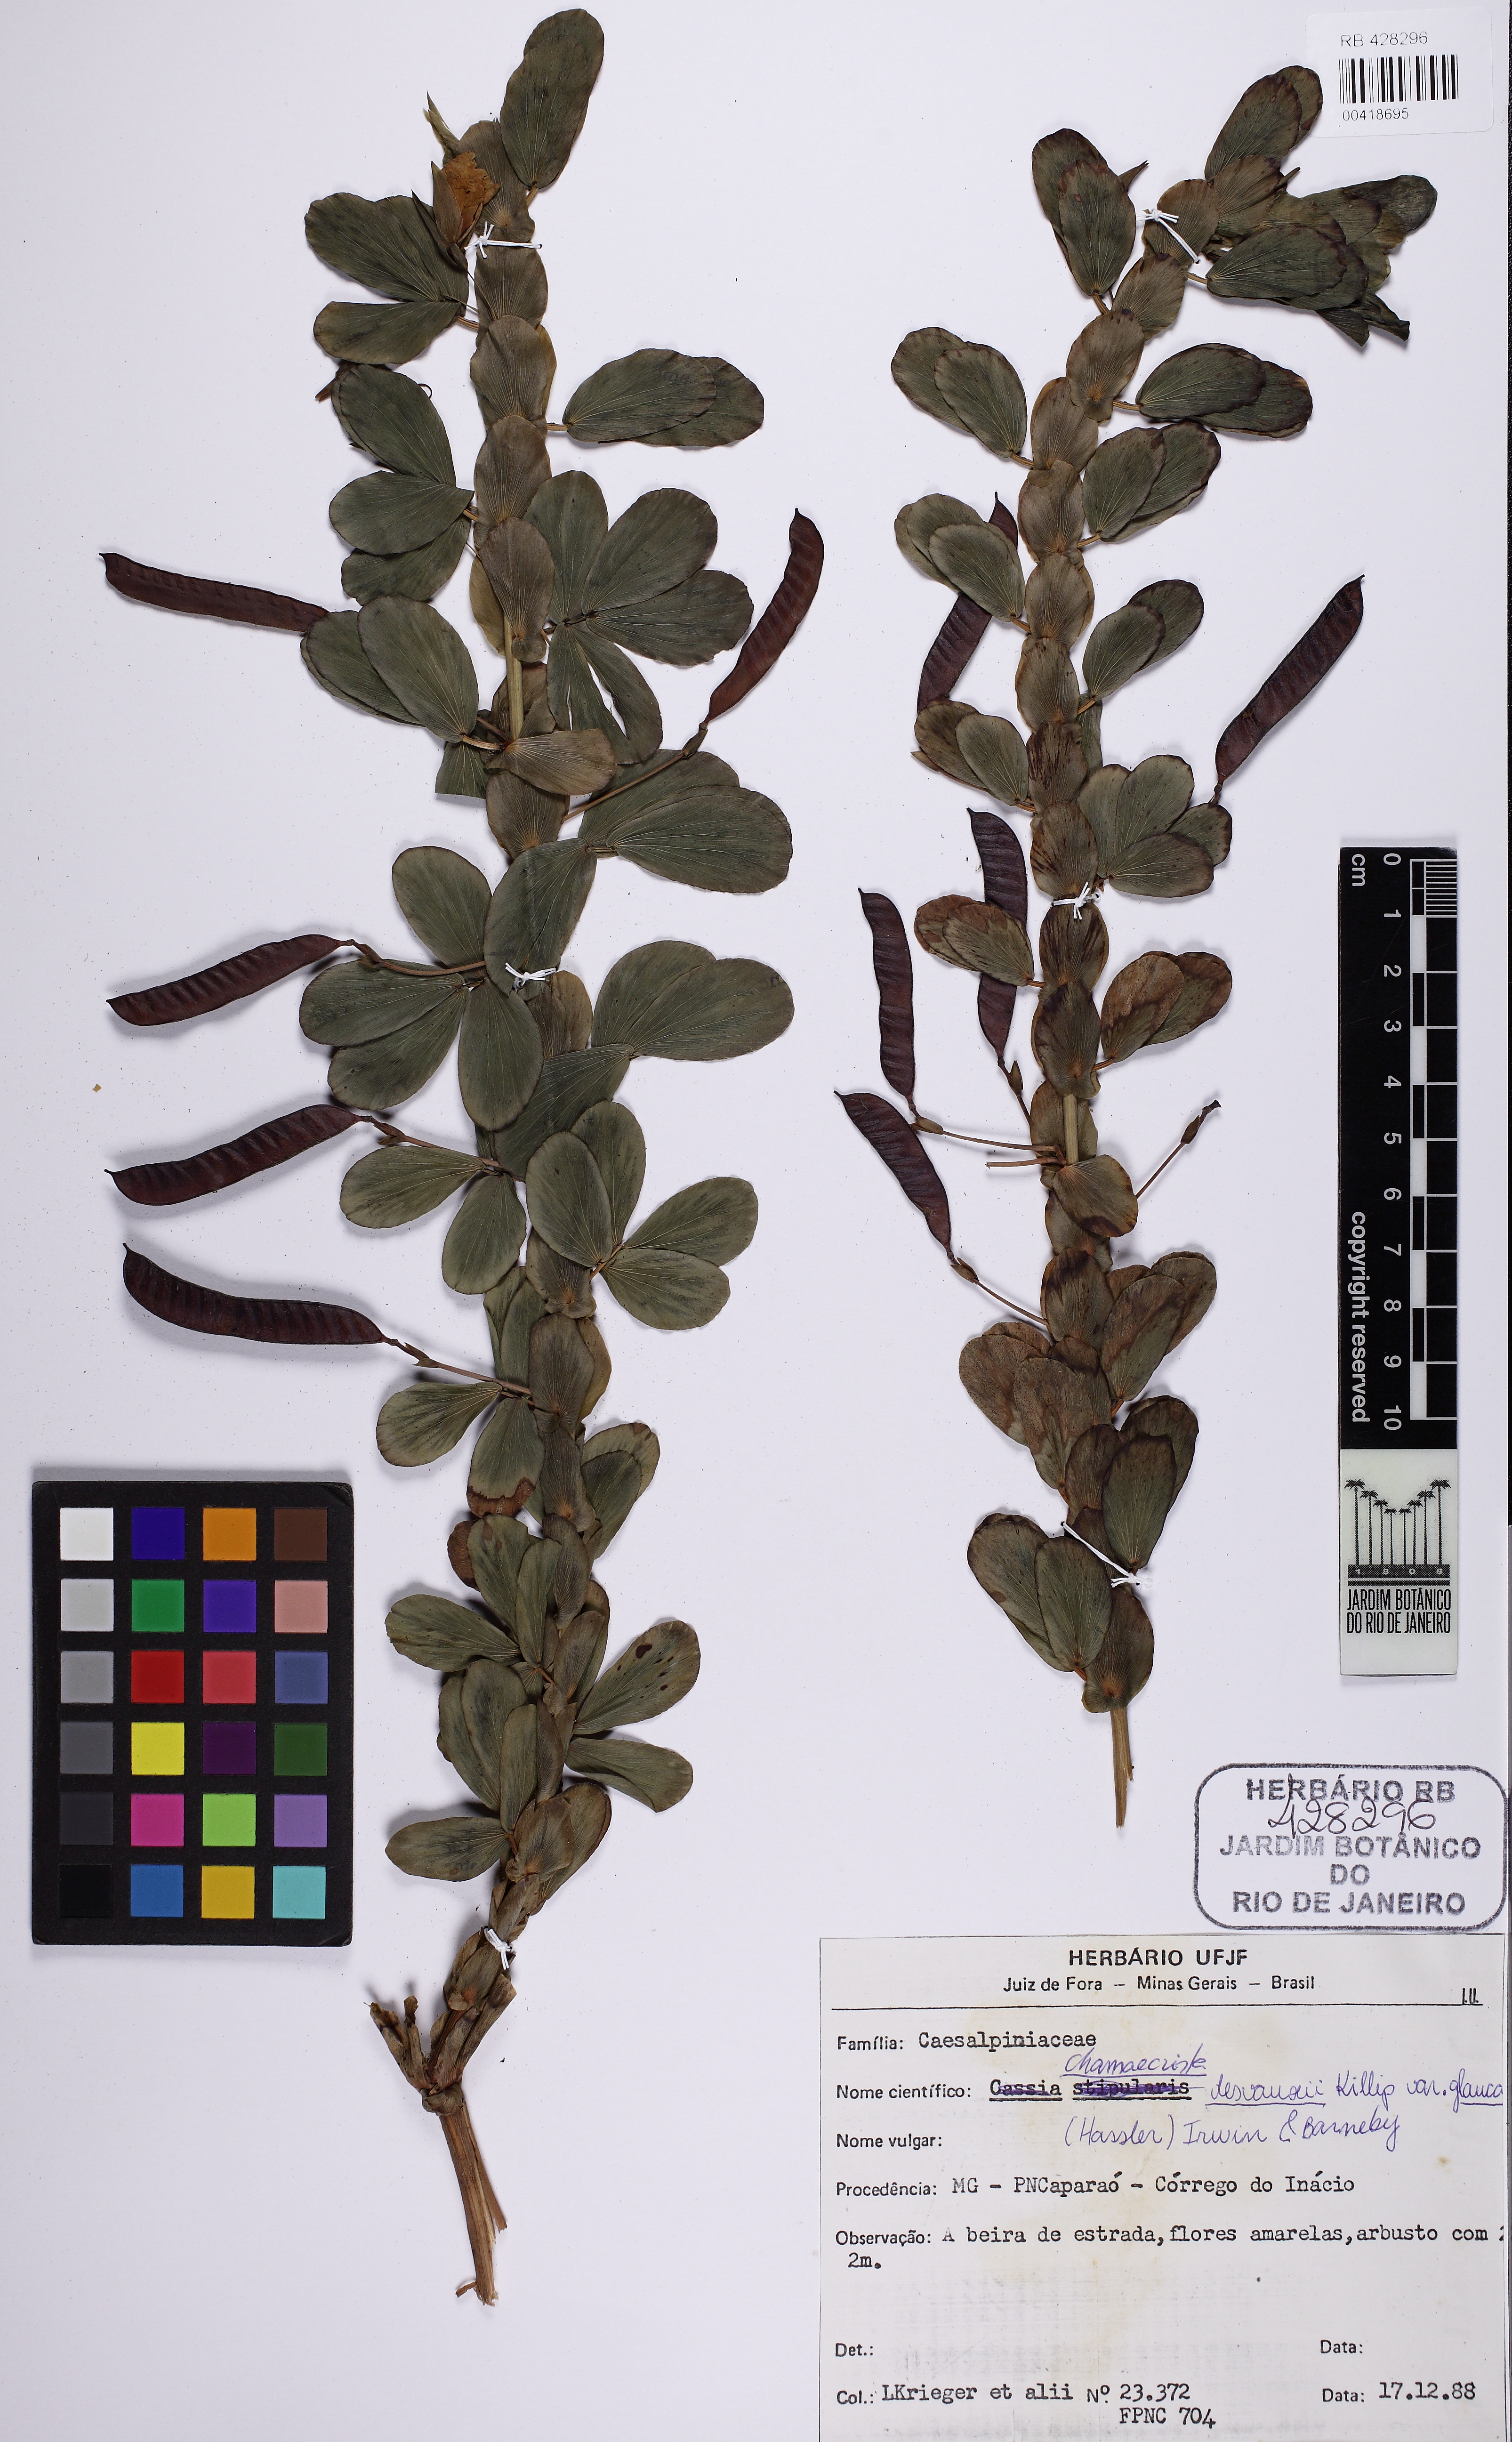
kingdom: Plantae
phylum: Tracheophyta
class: Magnoliopsida
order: Fabales
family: Fabaceae
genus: Chamaecrista
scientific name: Chamaecrista desvauxii
